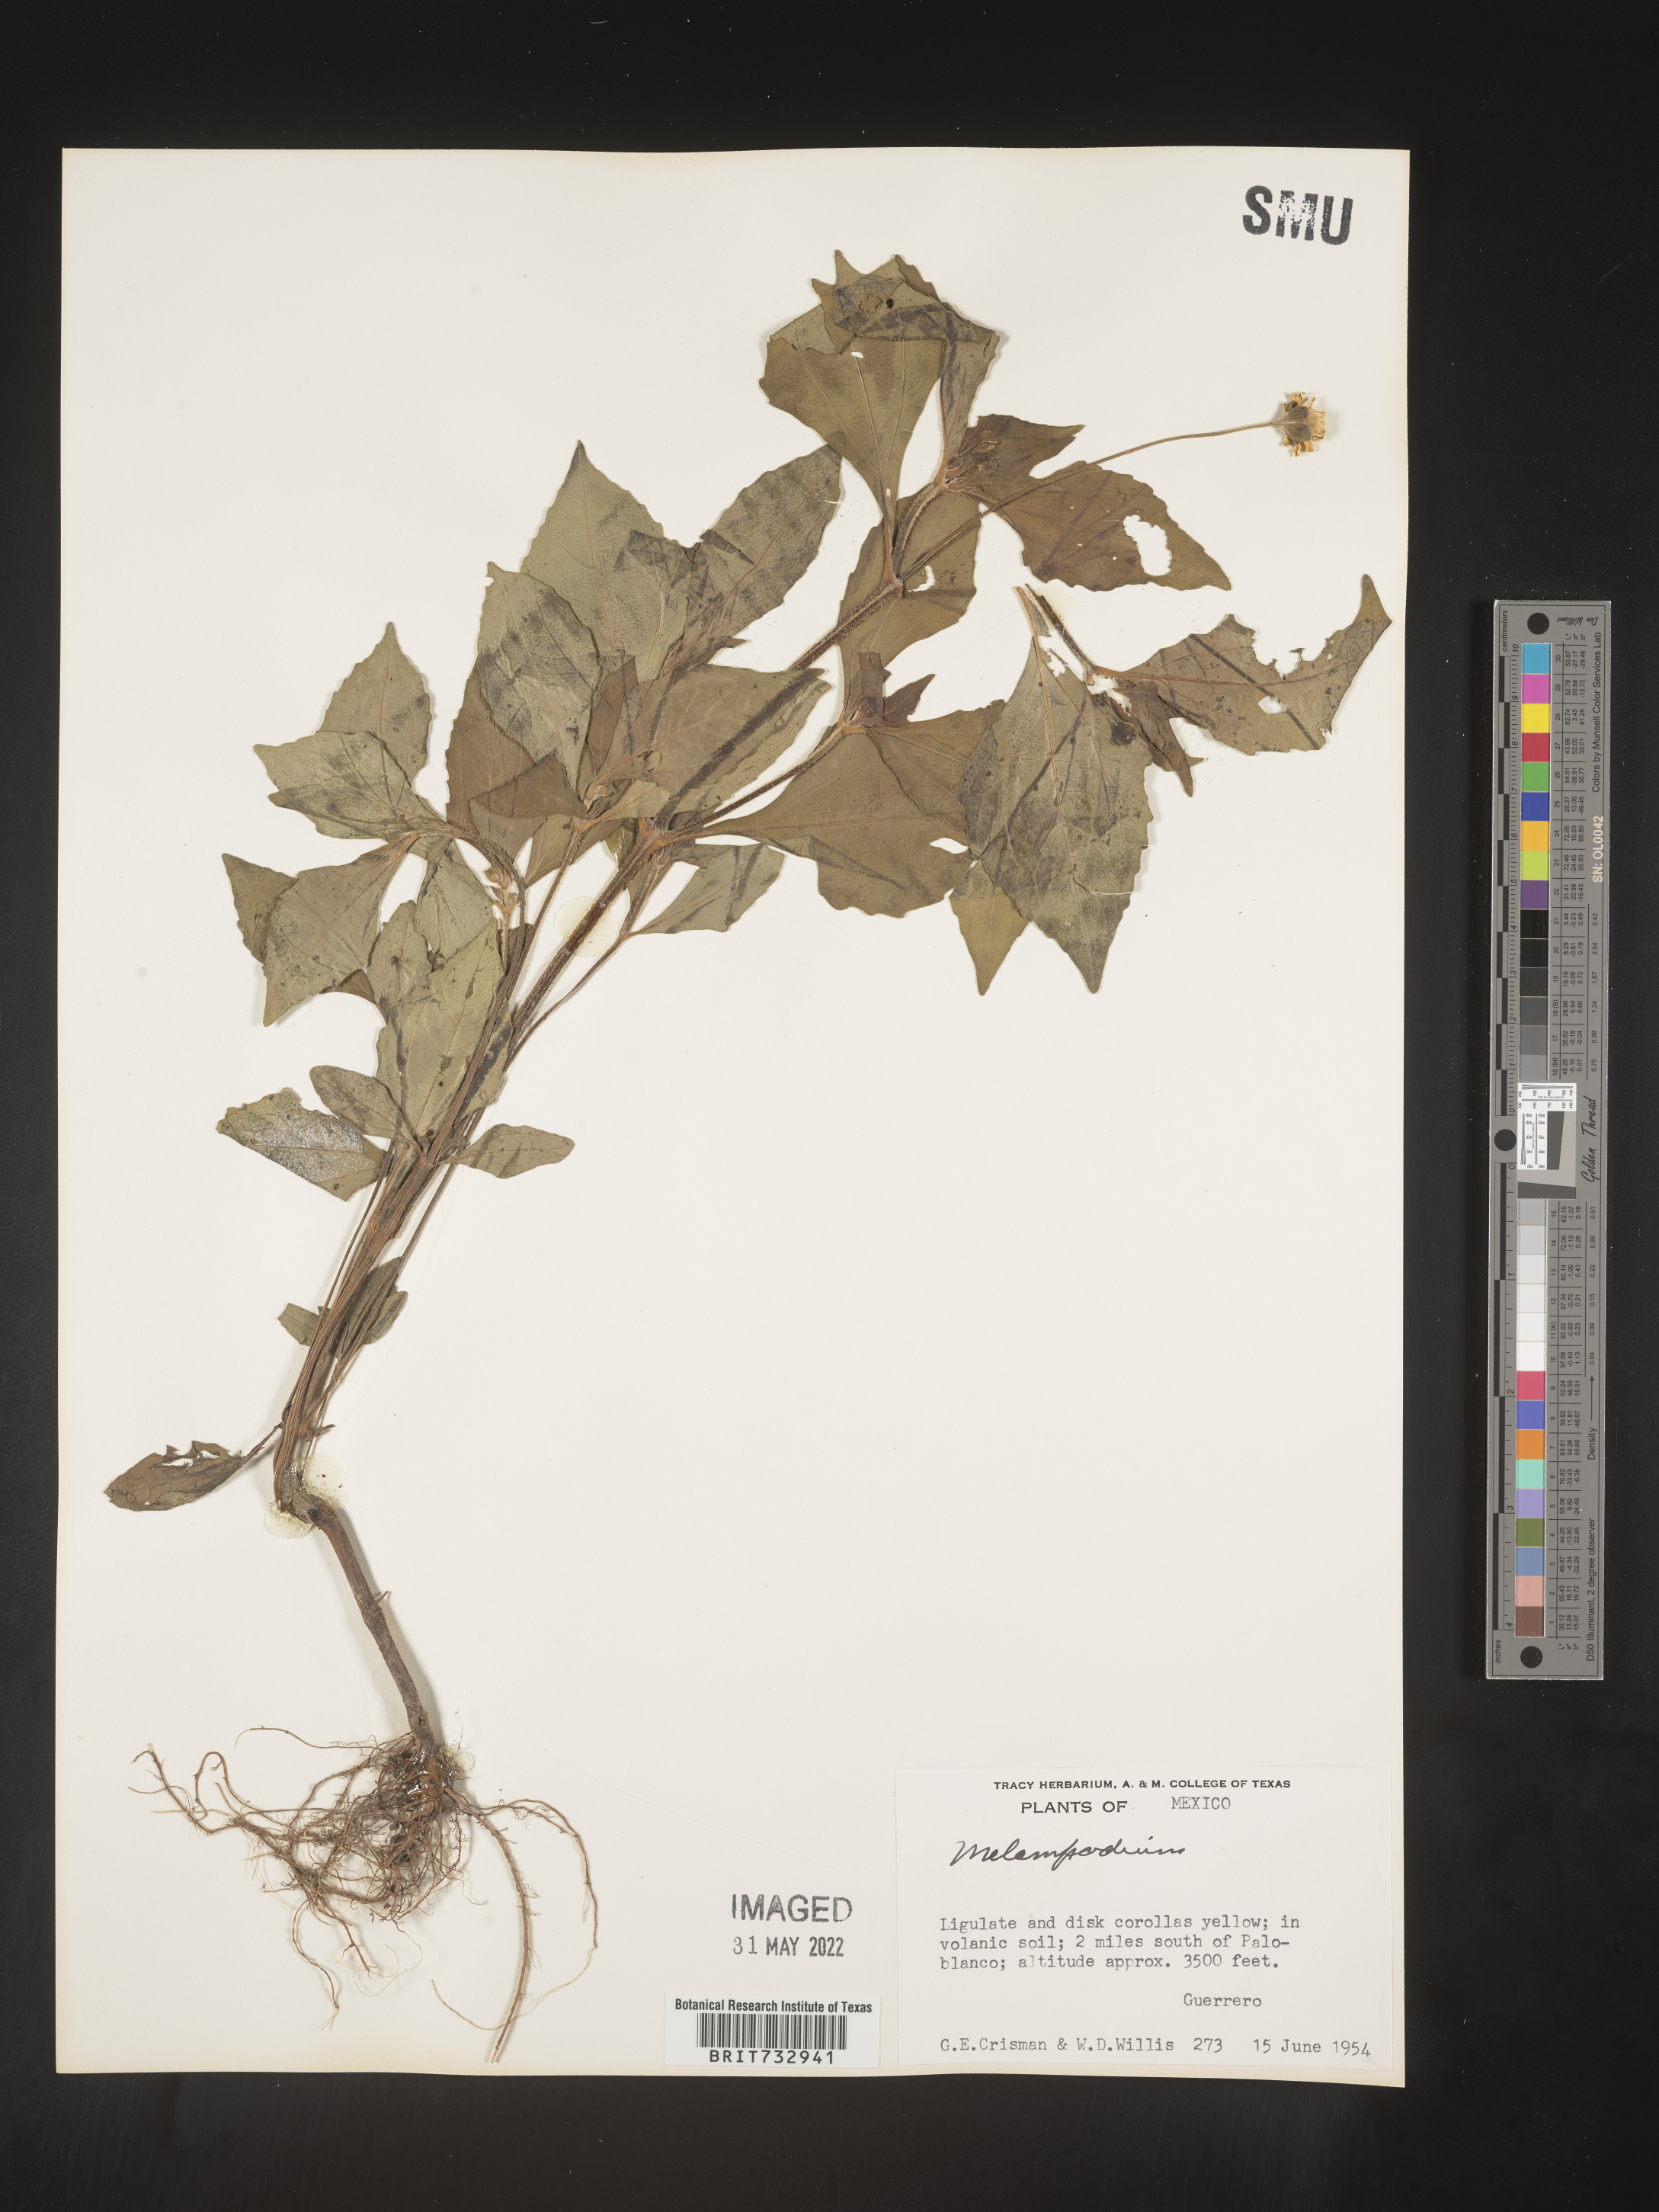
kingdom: Plantae
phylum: Tracheophyta
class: Magnoliopsida
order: Asterales
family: Asteraceae
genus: Melampodium
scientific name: Melampodium
